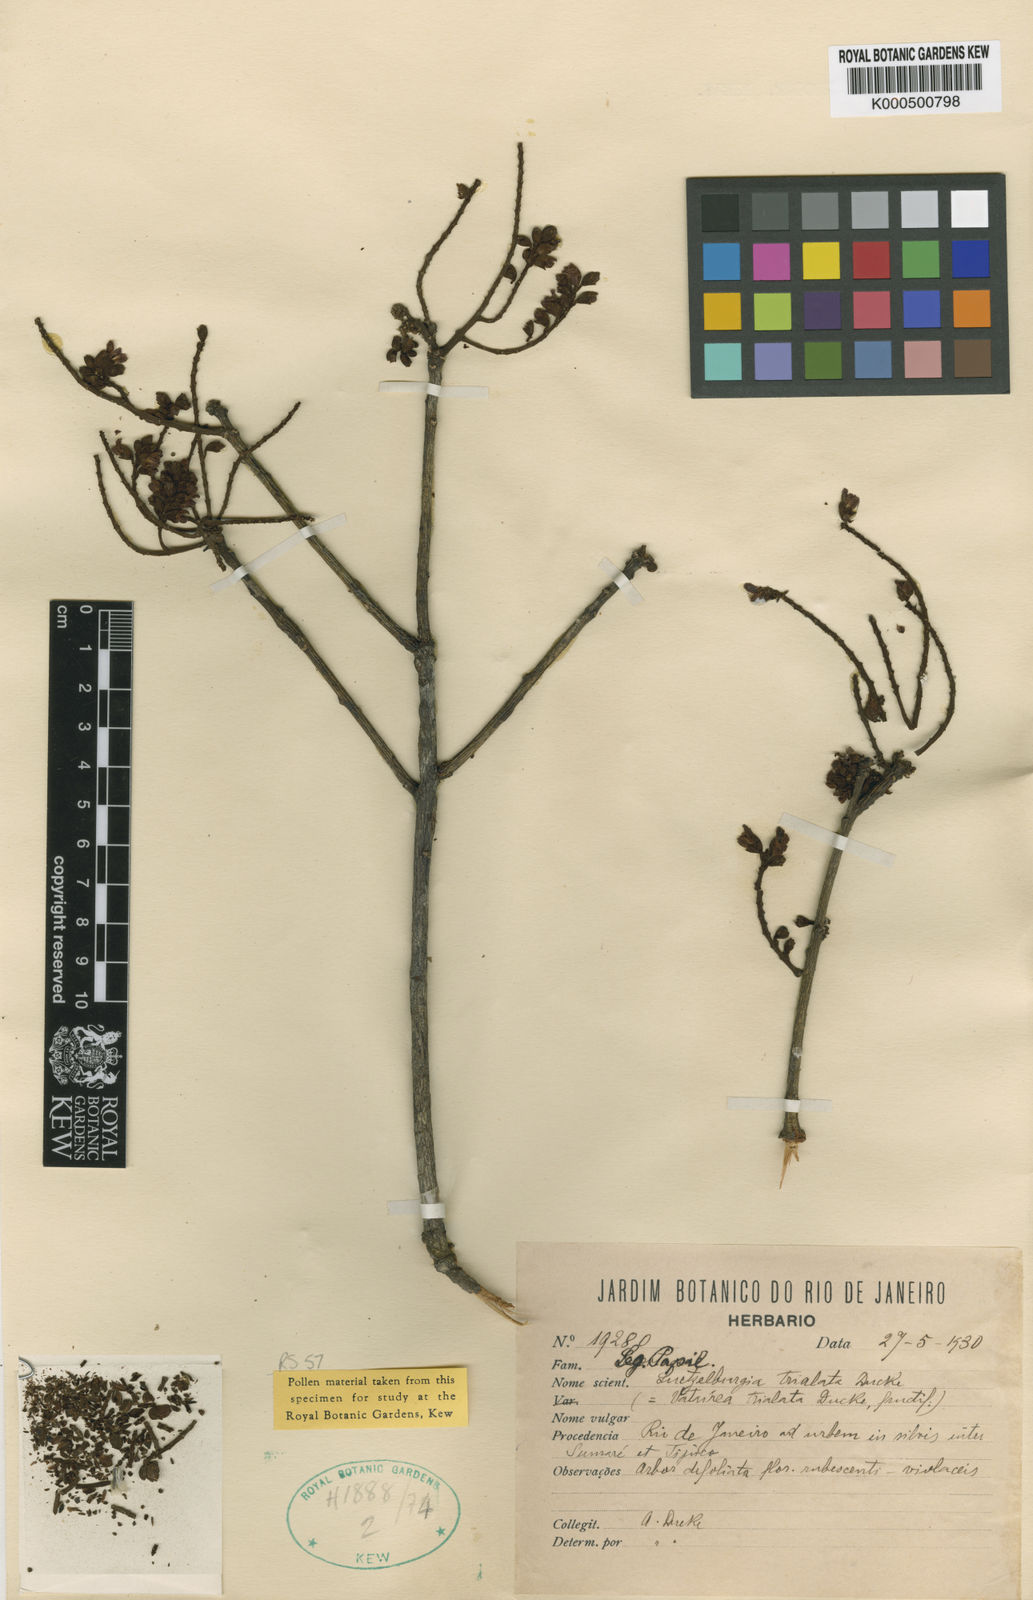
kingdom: Plantae
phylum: Tracheophyta
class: Magnoliopsida
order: Fabales
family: Fabaceae
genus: Luetzelburgia
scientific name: Luetzelburgia trialata
